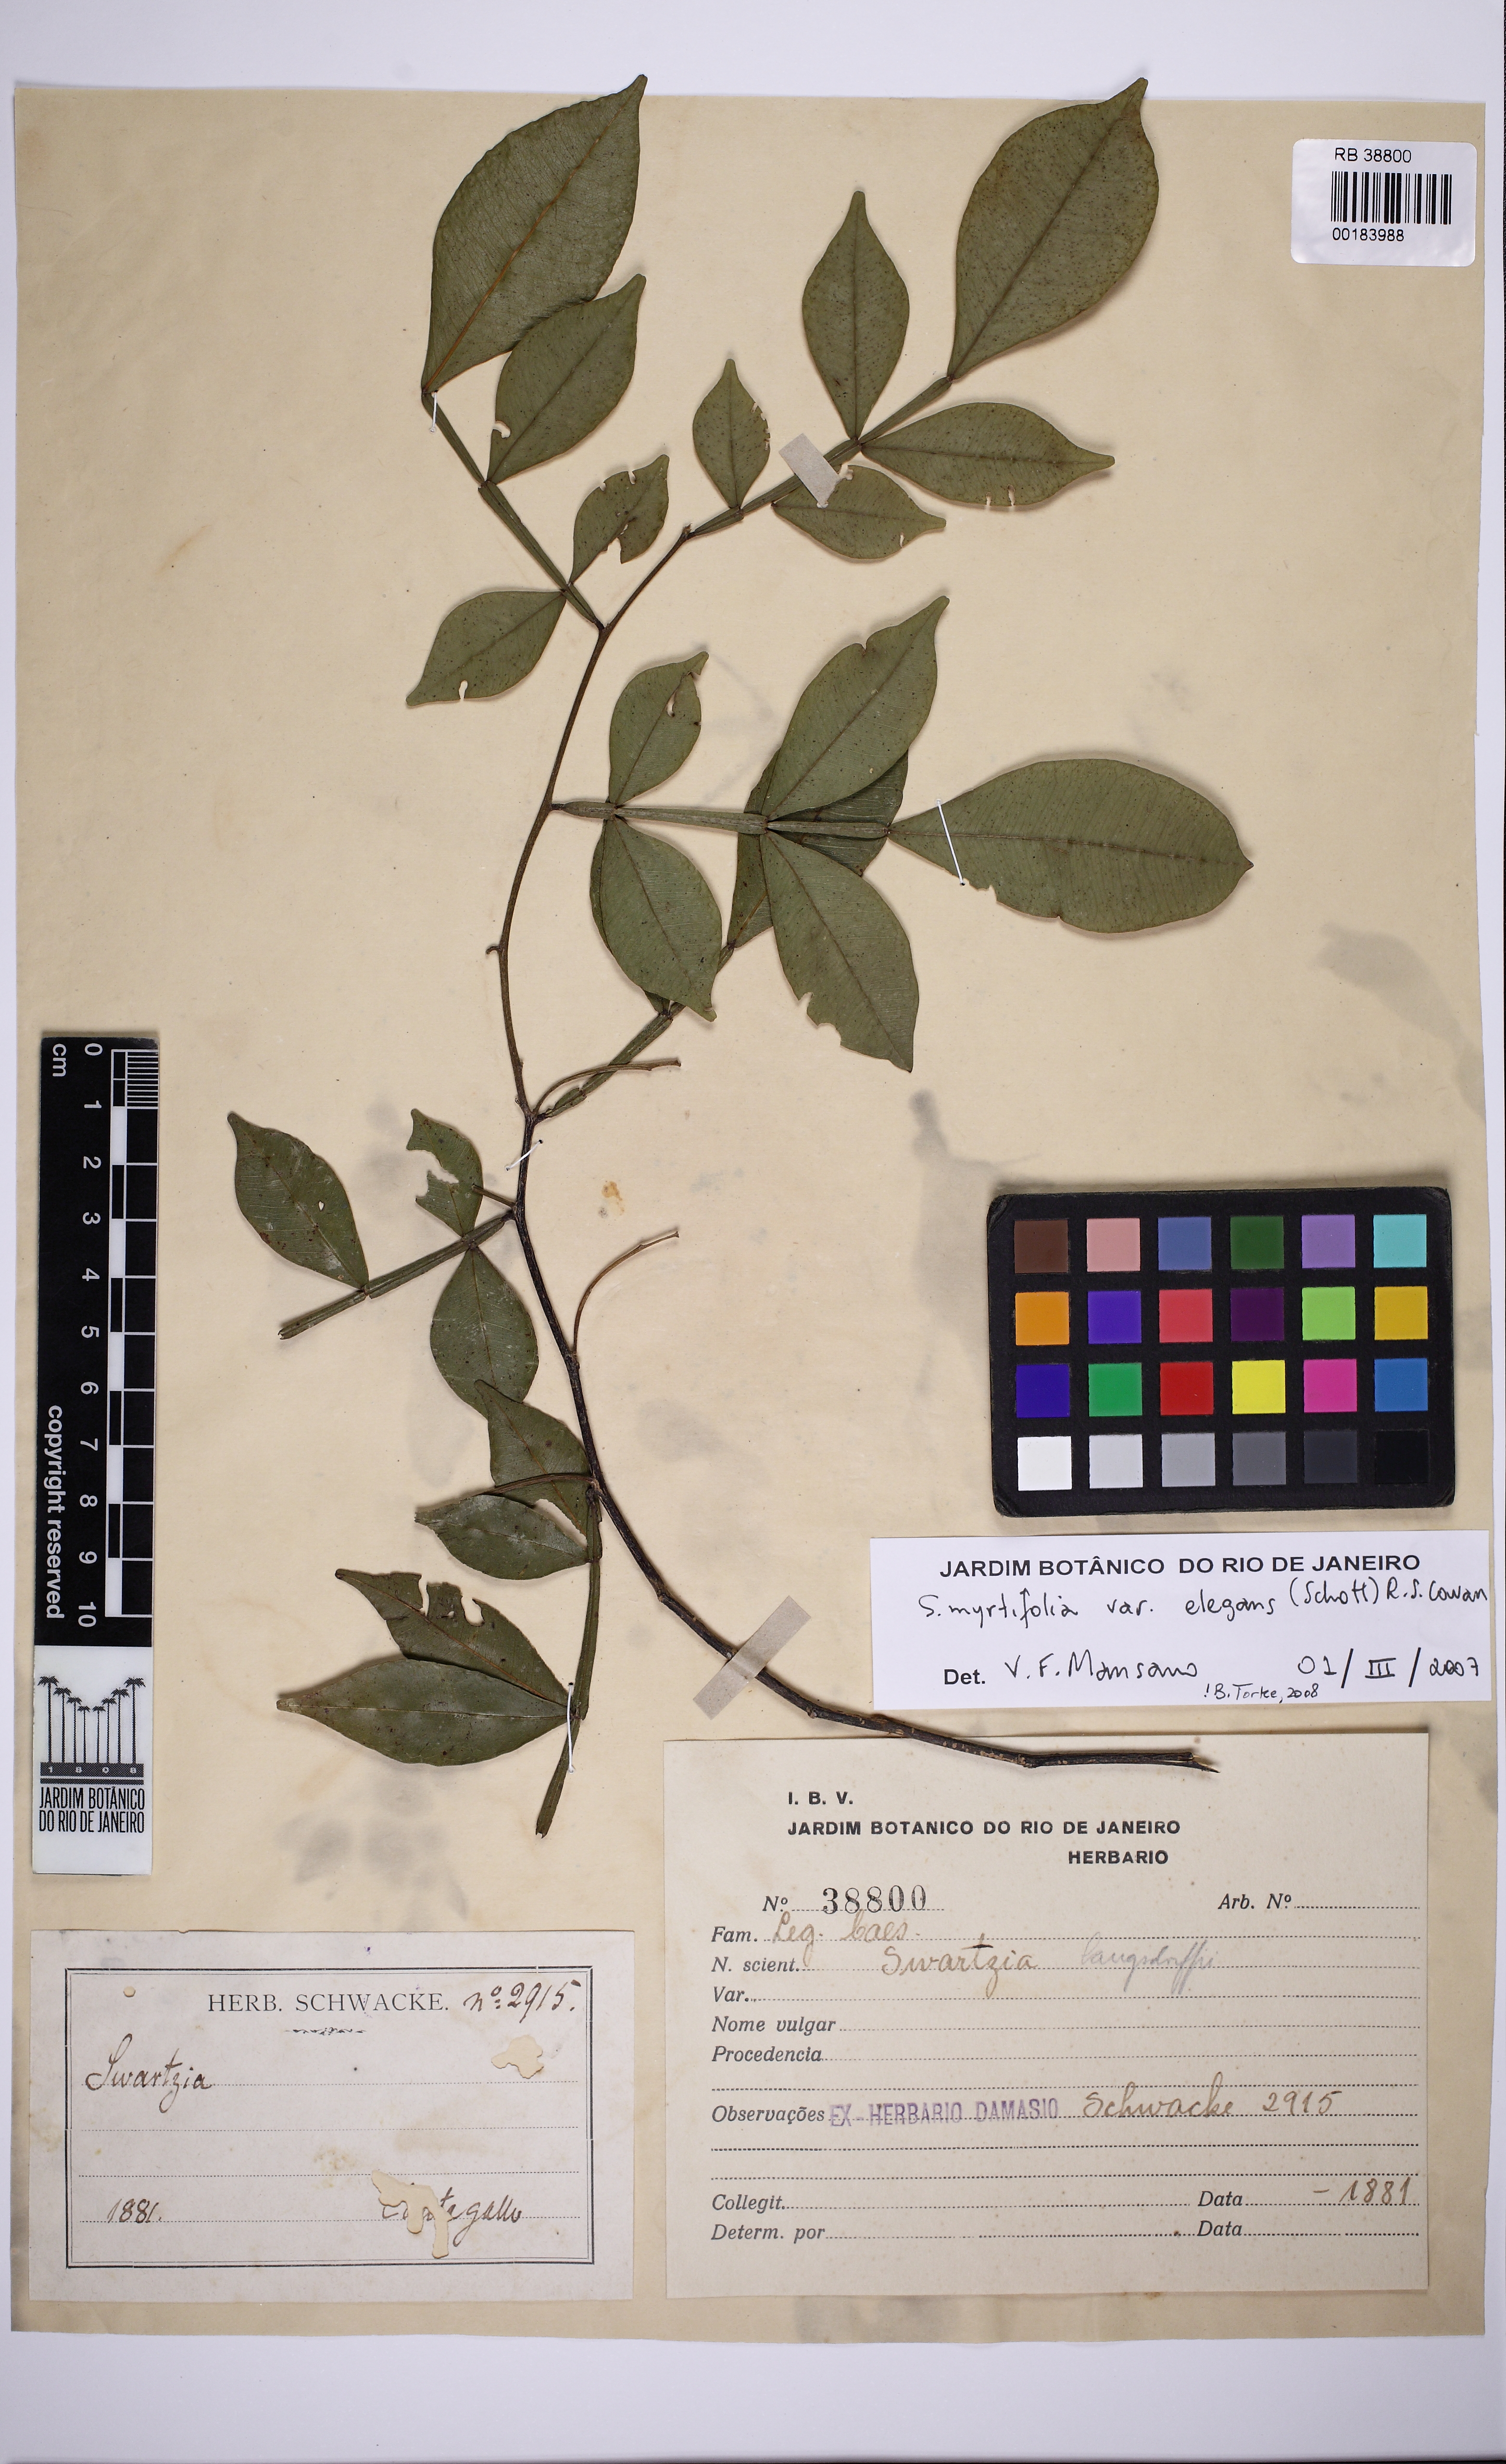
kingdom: Plantae
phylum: Tracheophyta
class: Magnoliopsida
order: Fabales
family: Fabaceae
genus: Swartzia
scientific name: Swartzia myrtifolia
